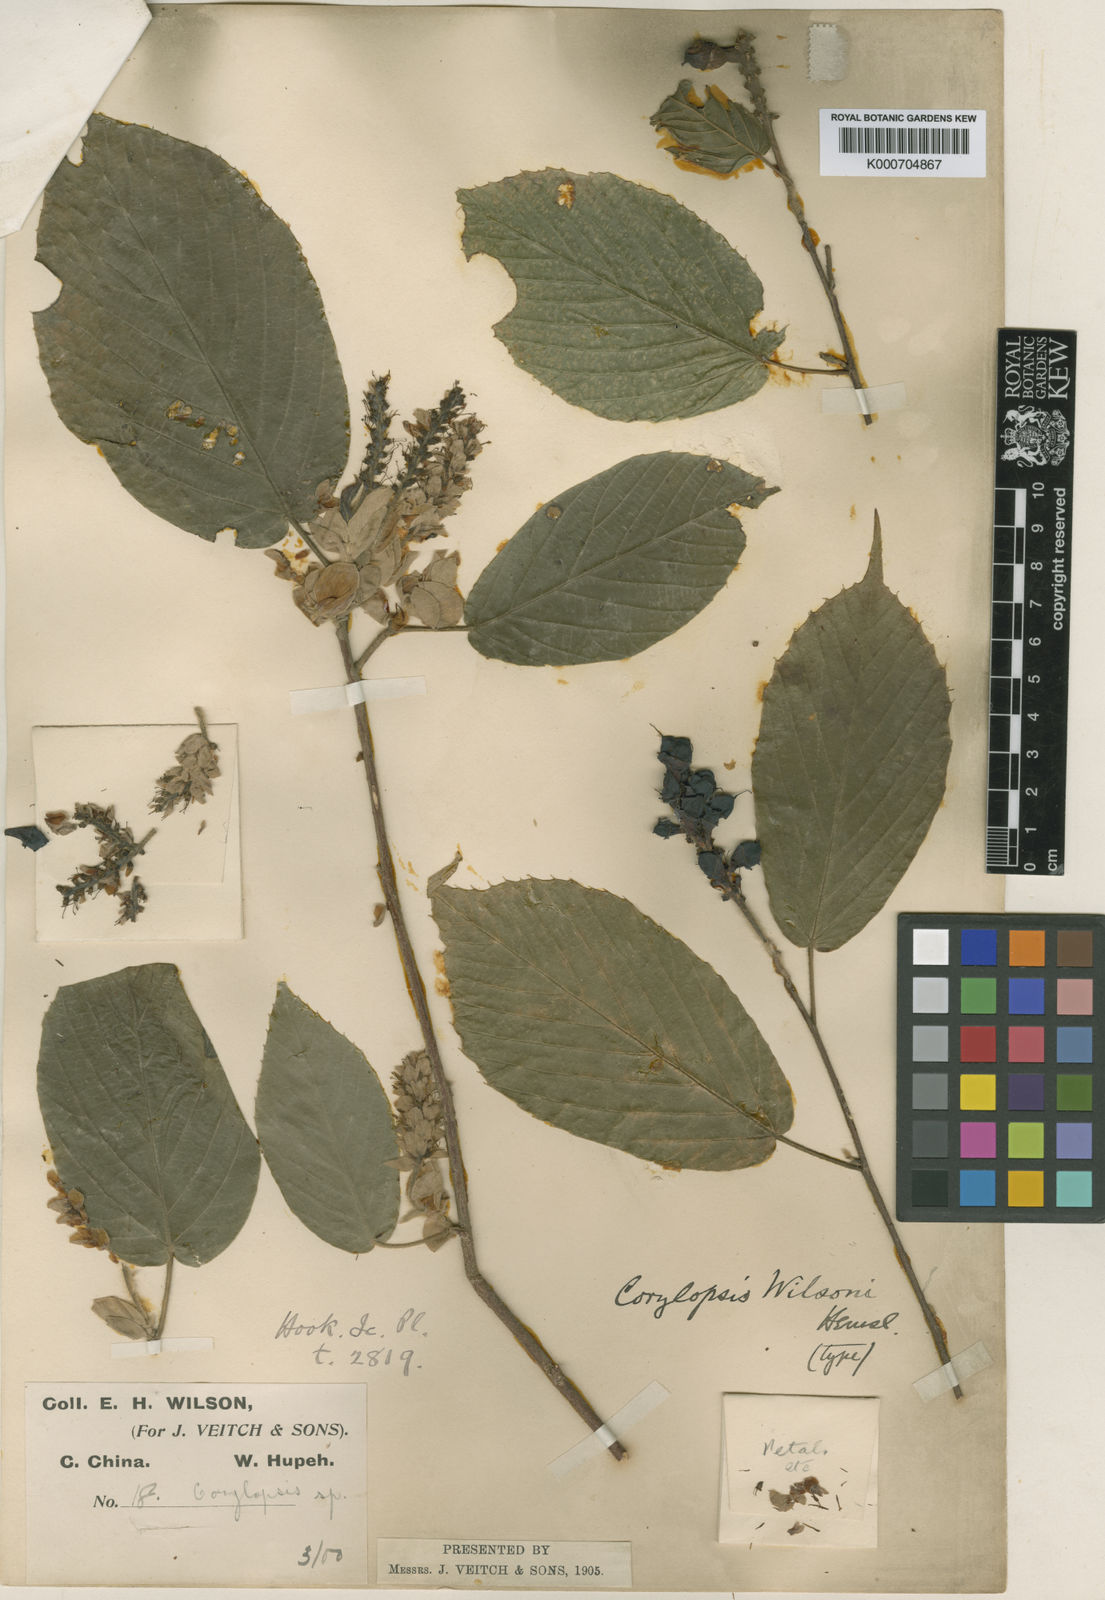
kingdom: Plantae
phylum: Tracheophyta
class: Magnoliopsida
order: Saxifragales
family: Hamamelidaceae
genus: Corylopsis
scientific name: Corylopsis multiflora
